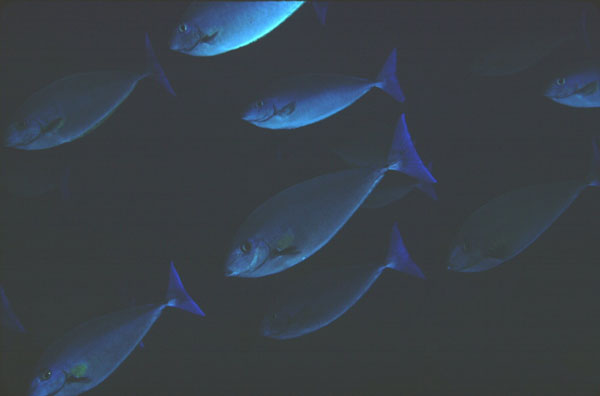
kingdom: Animalia
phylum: Chordata
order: Perciformes
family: Acanthuridae
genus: Naso
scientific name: Naso caeruleacauda
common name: Bluetail unicornfish
